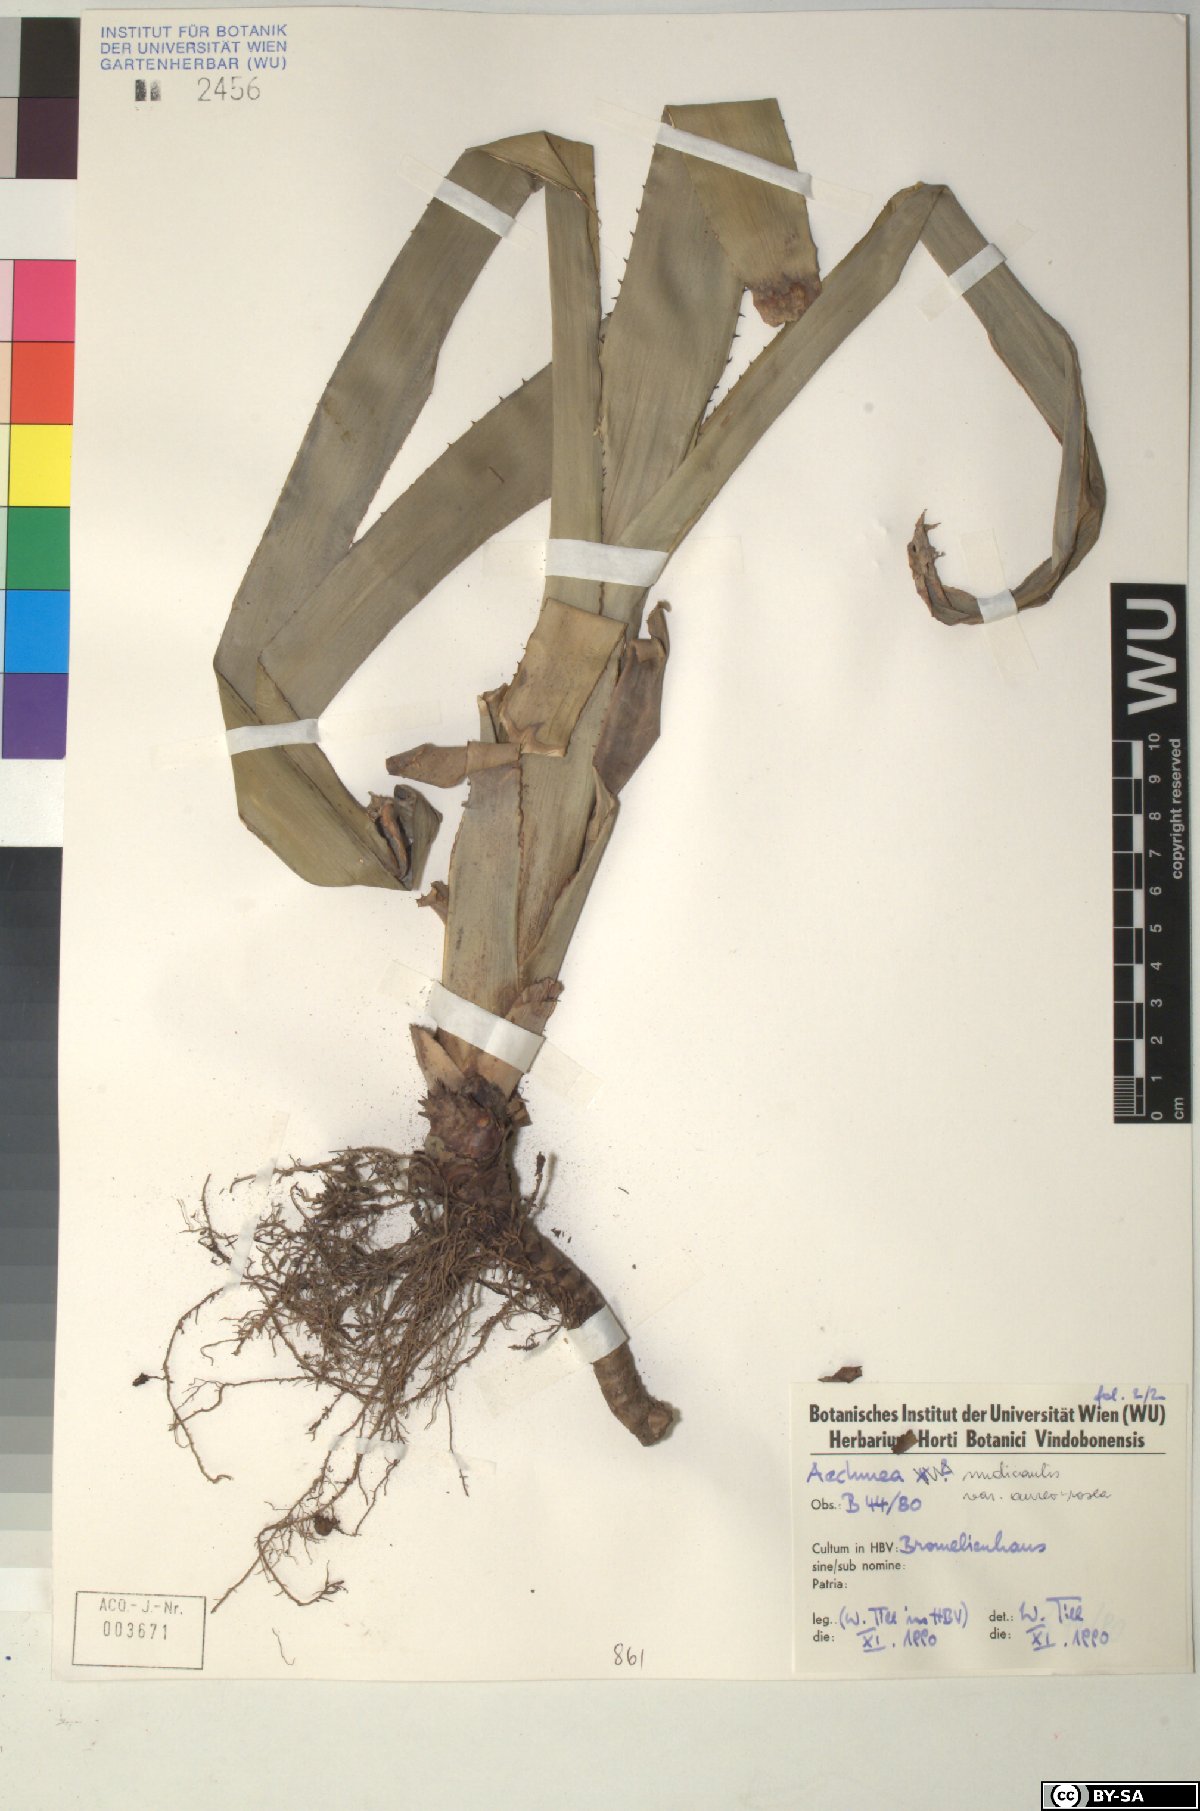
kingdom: Plantae
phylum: Tracheophyta
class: Liliopsida
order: Poales
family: Bromeliaceae
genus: Aechmea
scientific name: Aechmea nudicaulis
